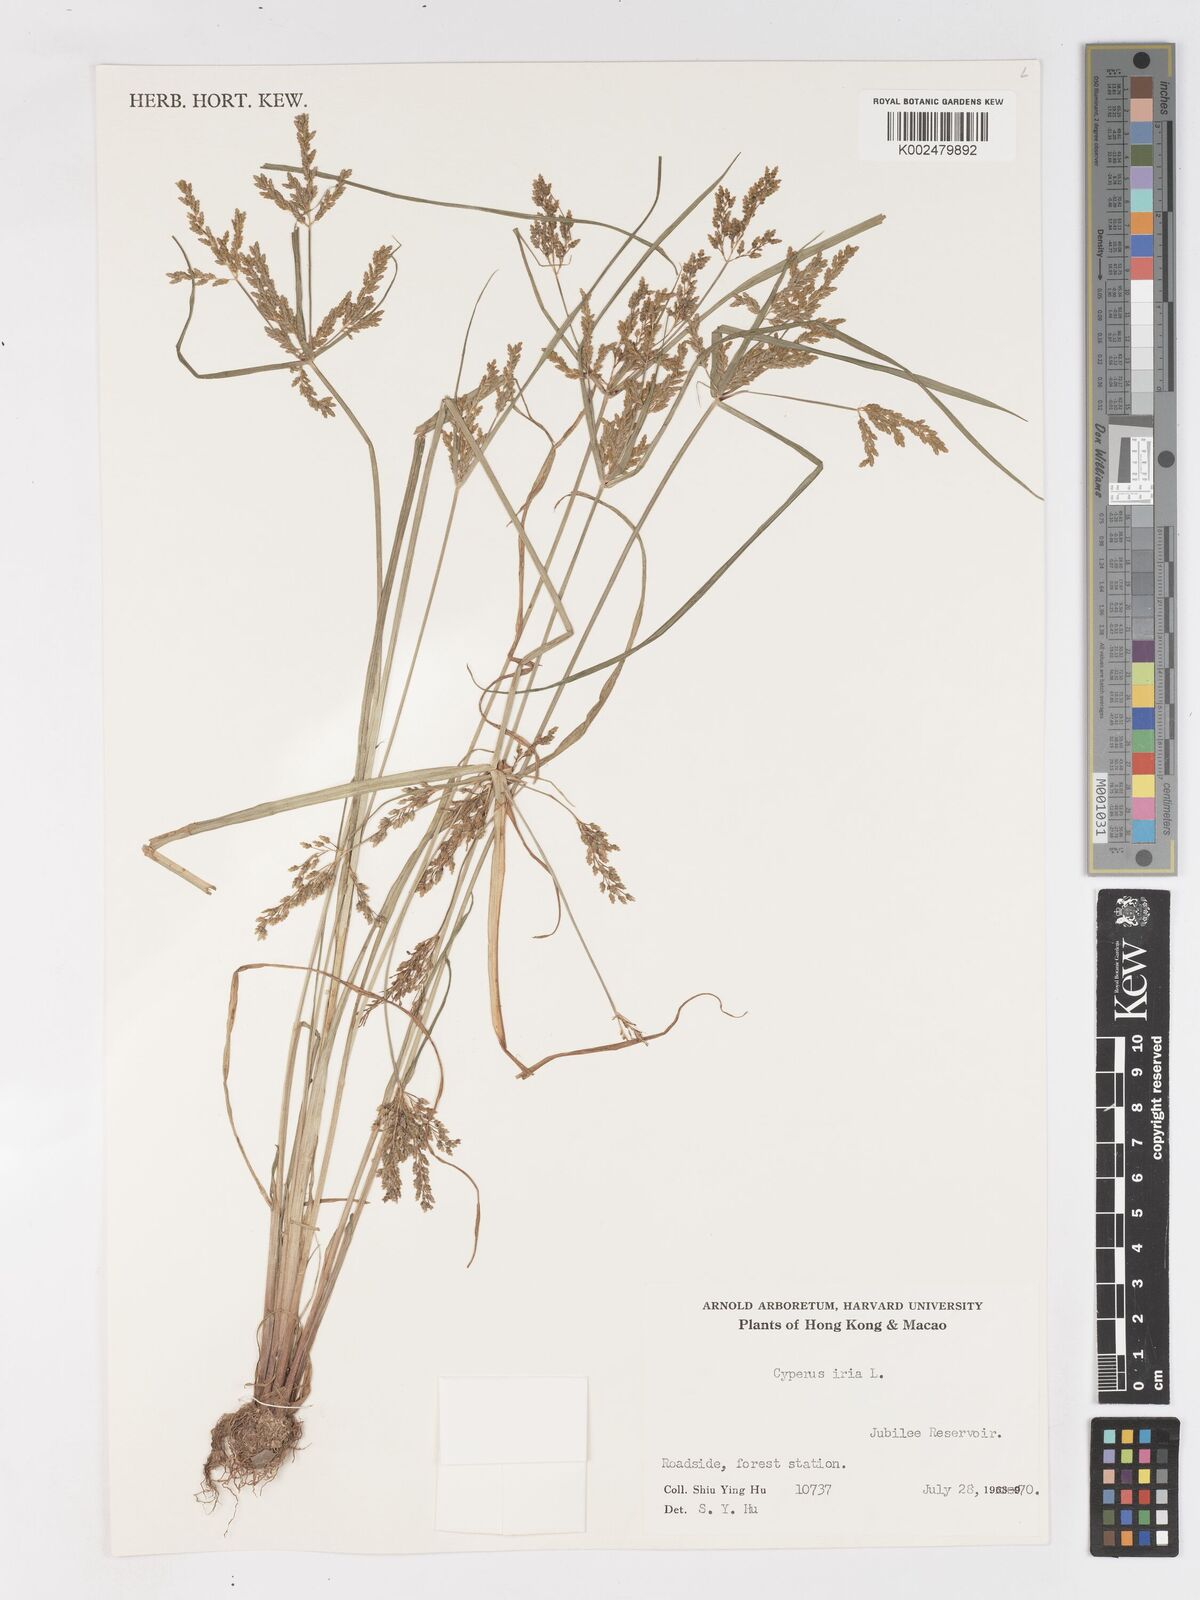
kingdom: Plantae
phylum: Tracheophyta
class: Liliopsida
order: Poales
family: Cyperaceae
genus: Cyperus
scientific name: Cyperus iria
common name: Ricefield flatsedge
